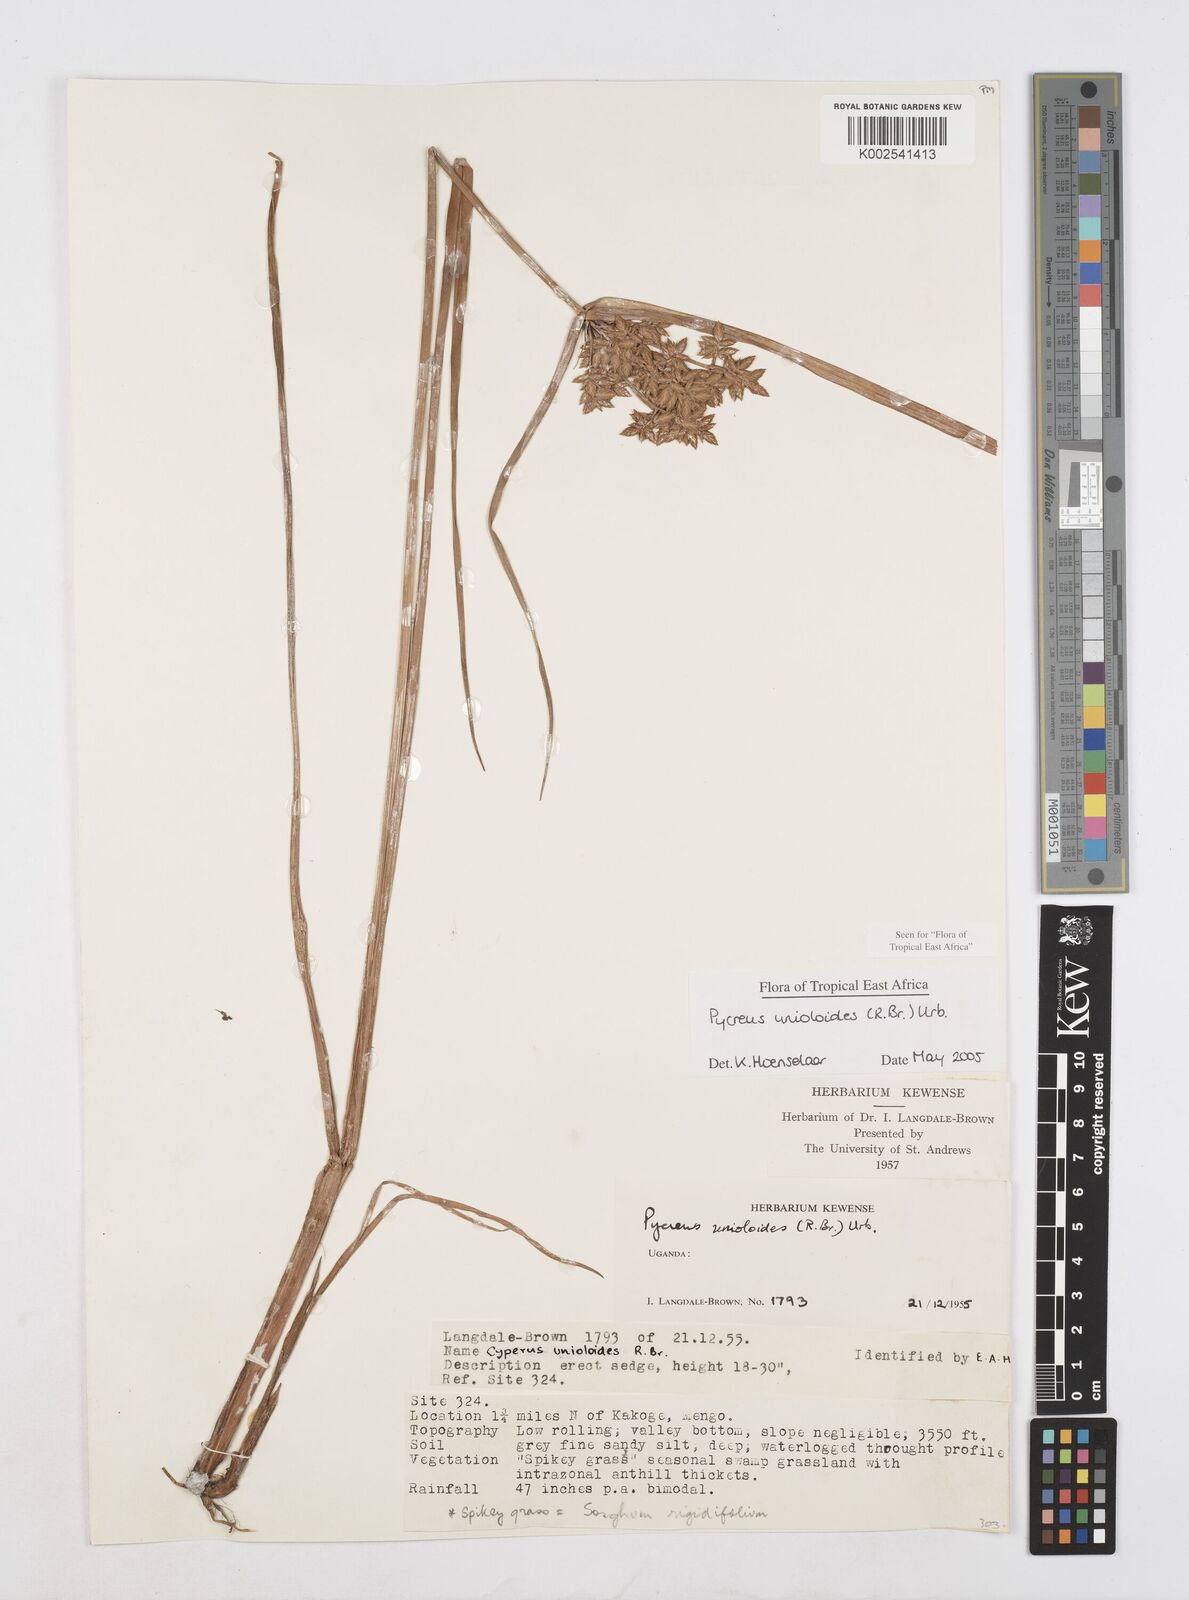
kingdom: Plantae
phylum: Tracheophyta
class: Liliopsida
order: Poales
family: Cyperaceae
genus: Cyperus
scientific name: Cyperus unioloides
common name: Uniola flatsedge
